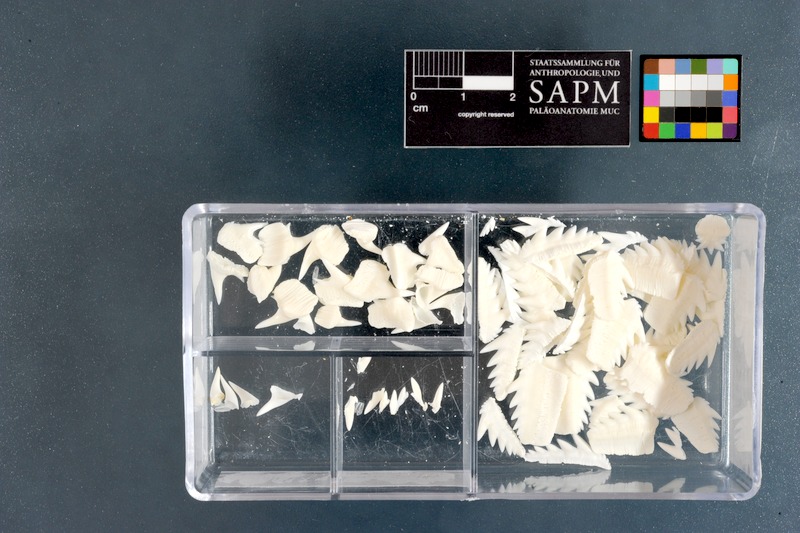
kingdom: Animalia
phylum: Chordata
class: Elasmobranchii
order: Hexanchiformes
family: Hexanchidae
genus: Notorynchus
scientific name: Notorynchus cepedianus
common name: Broadnose sevengill shark
